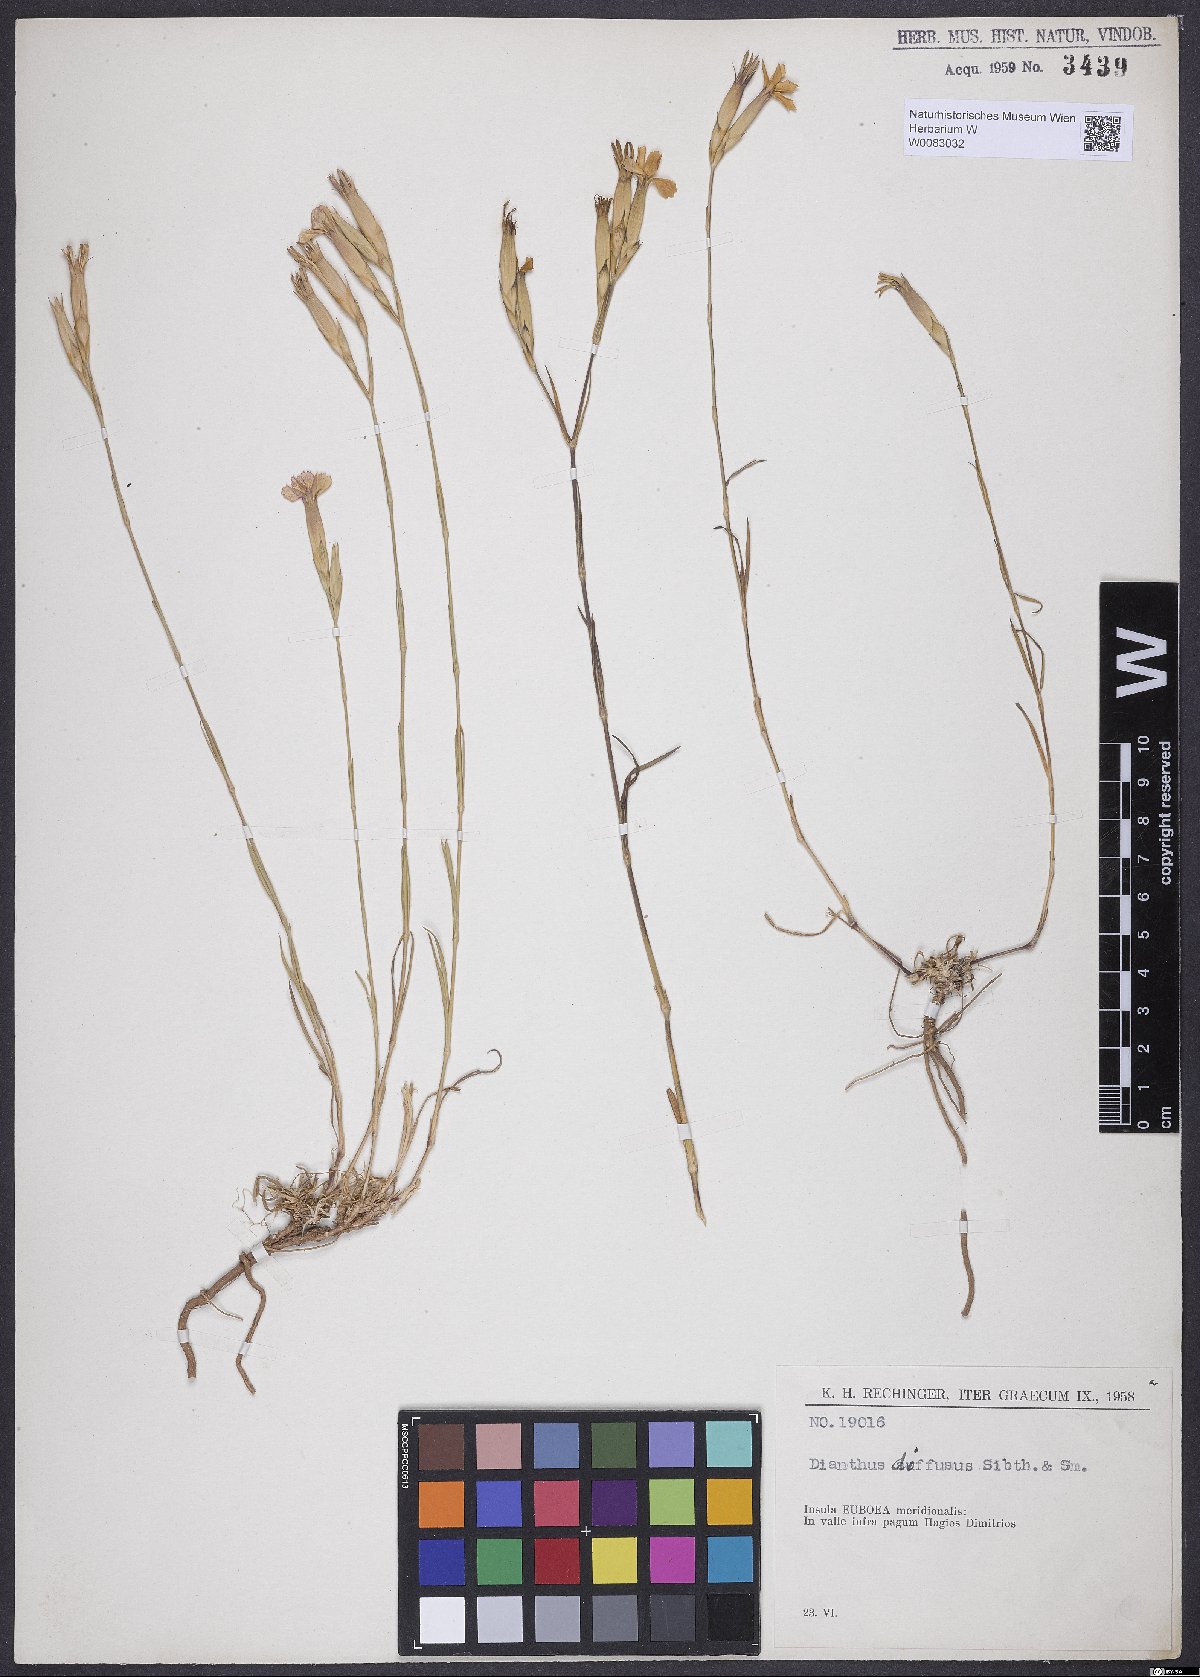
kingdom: Plantae
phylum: Tracheophyta
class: Magnoliopsida
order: Caryophyllales
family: Caryophyllaceae
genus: Dianthus
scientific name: Dianthus diffusus
